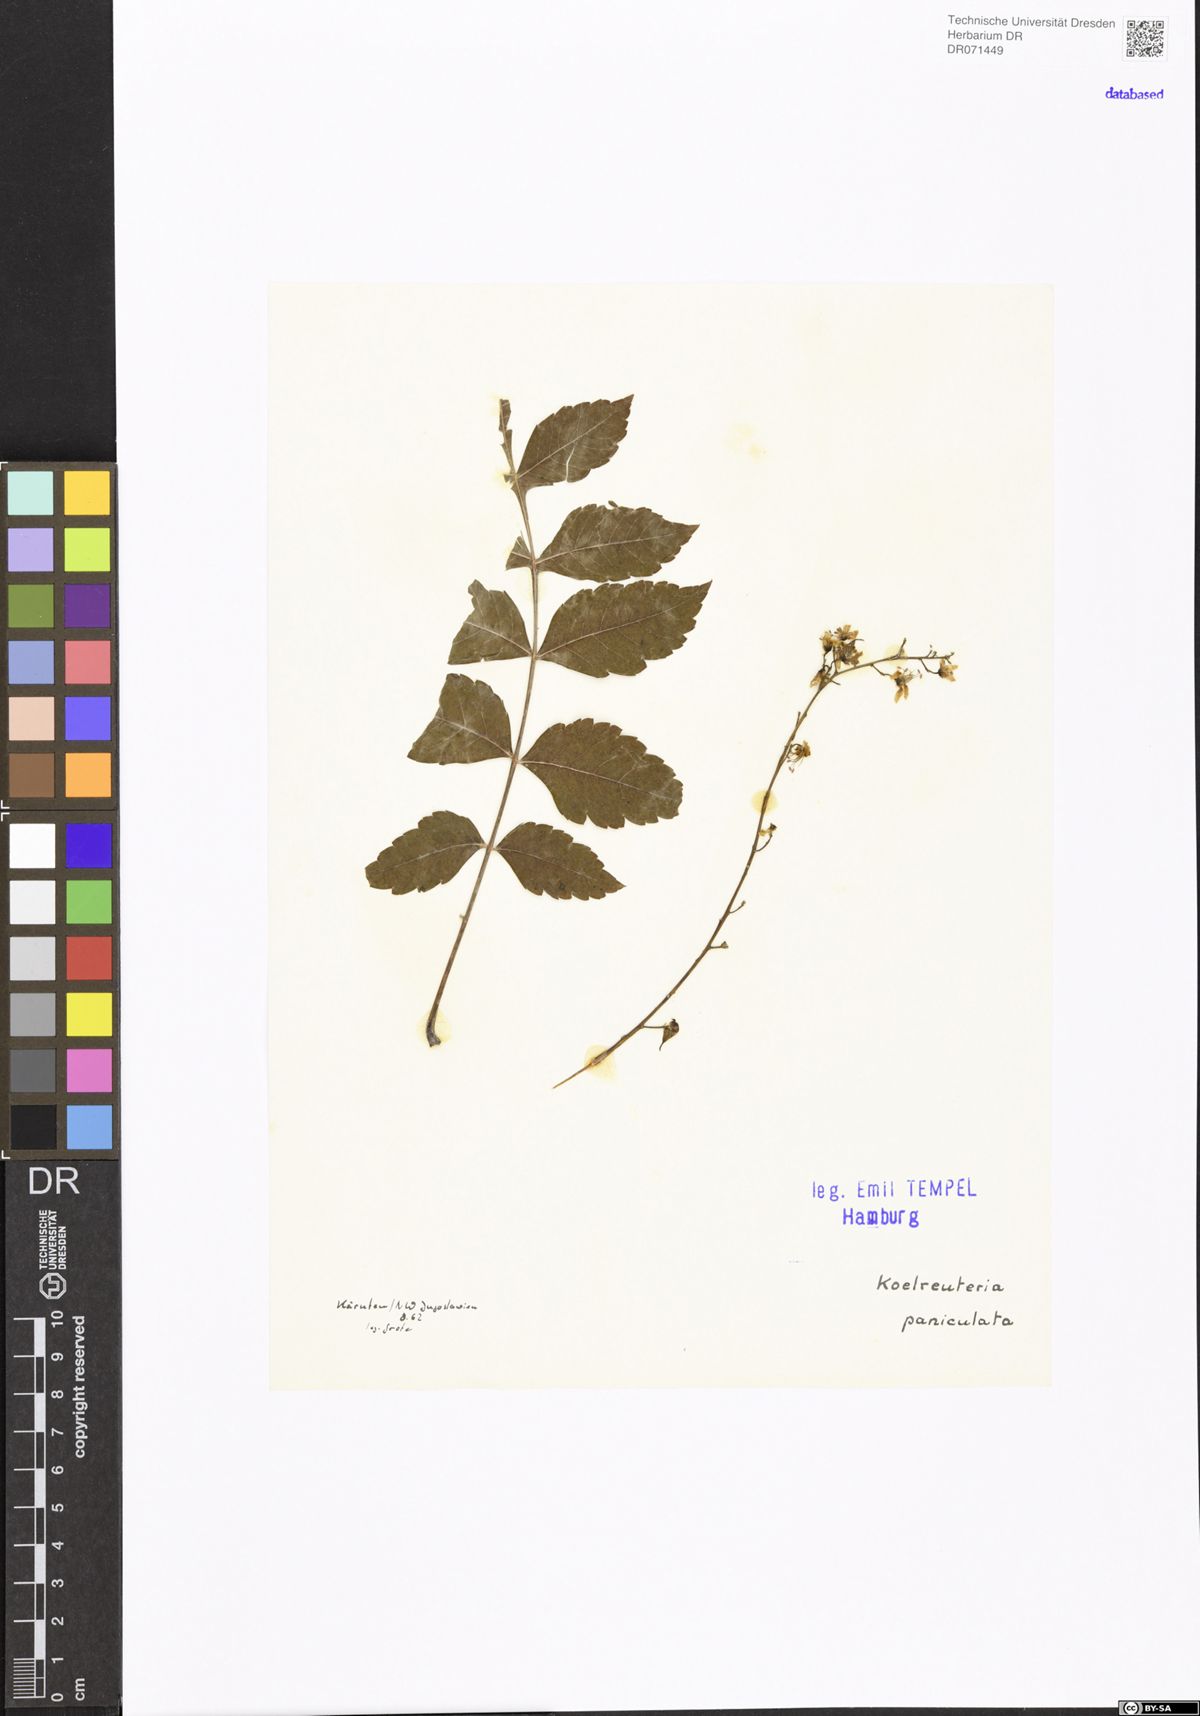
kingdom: Plantae
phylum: Tracheophyta
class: Magnoliopsida
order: Sapindales
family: Sapindaceae
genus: Koelreuteria
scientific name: Koelreuteria paniculata
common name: Pride-of-india
